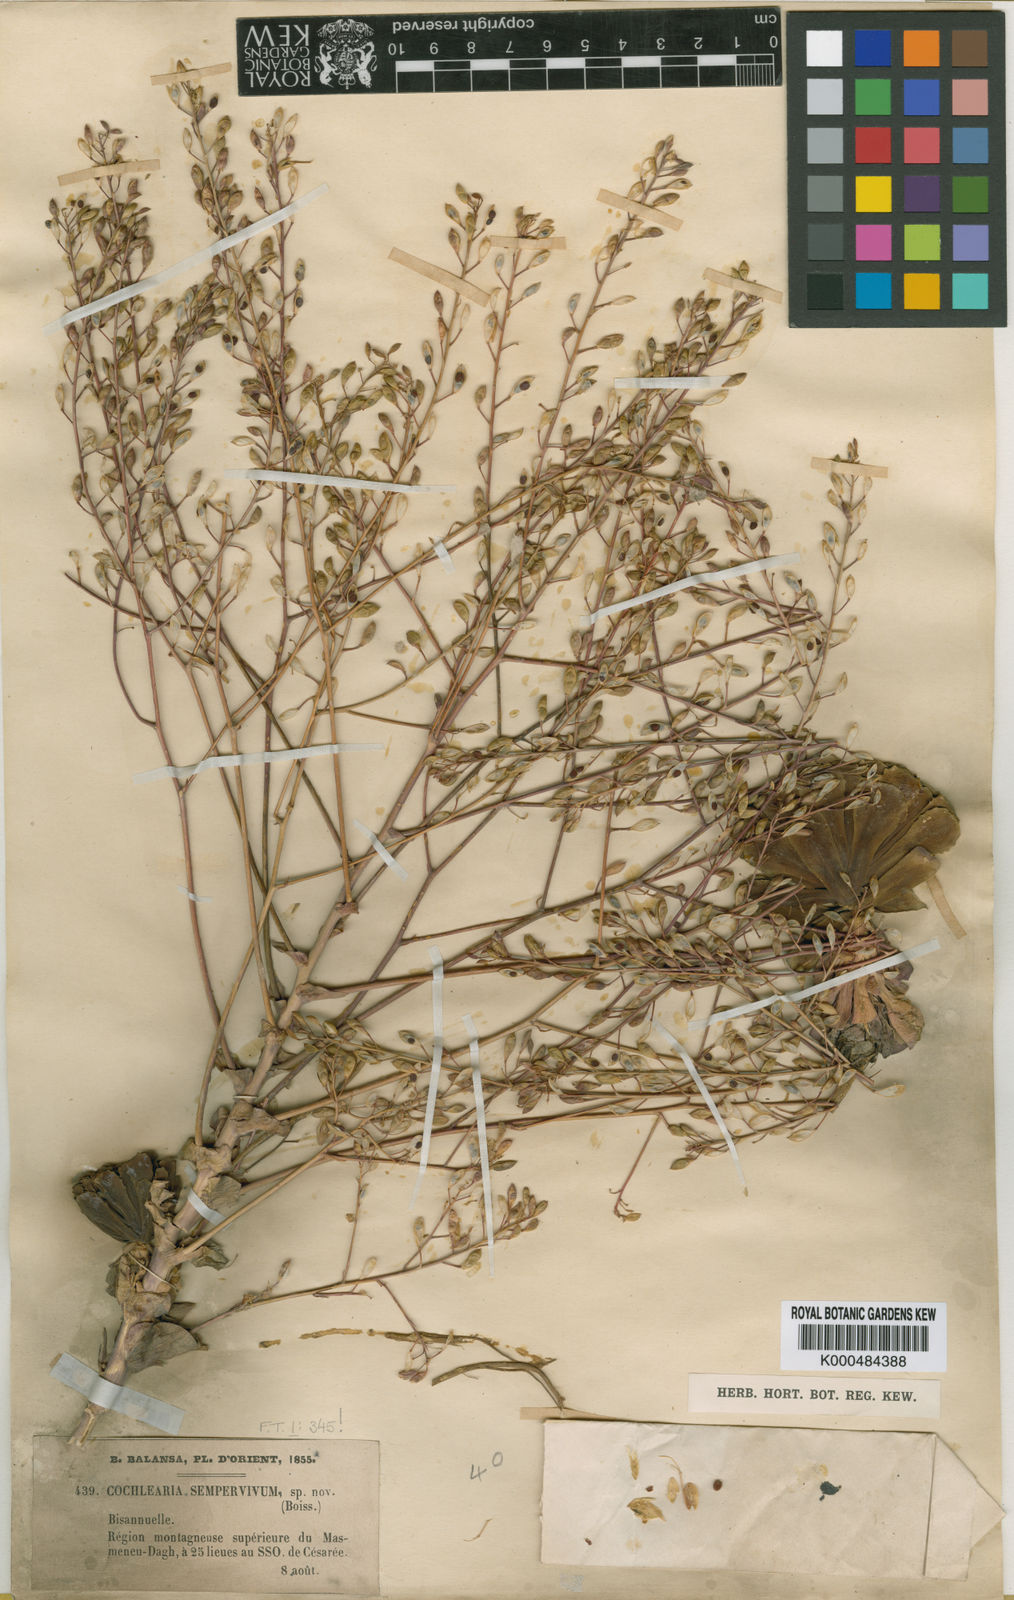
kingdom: Plantae
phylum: Tracheophyta
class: Magnoliopsida
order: Brassicales
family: Brassicaceae
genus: Pseudosempervivum
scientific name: Pseudosempervivum sempervivum
